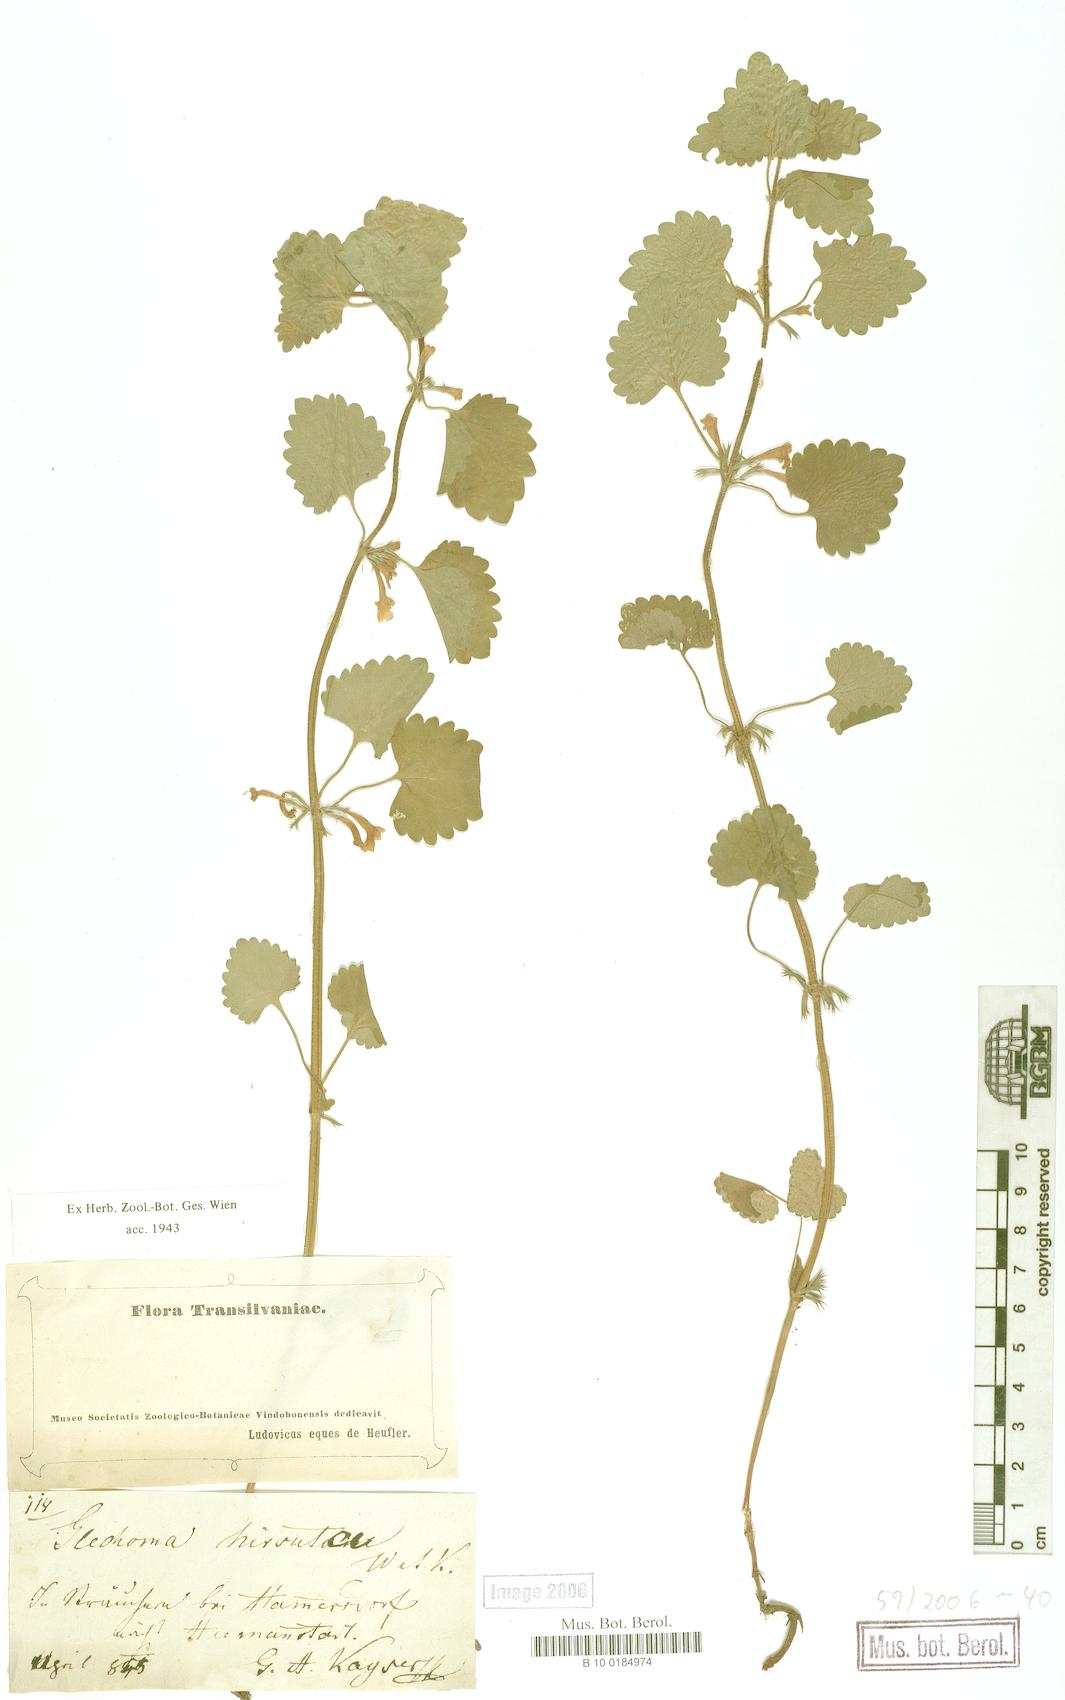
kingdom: Plantae
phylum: Tracheophyta
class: Magnoliopsida
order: Lamiales
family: Lamiaceae
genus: Glechoma
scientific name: Glechoma hirsuta
